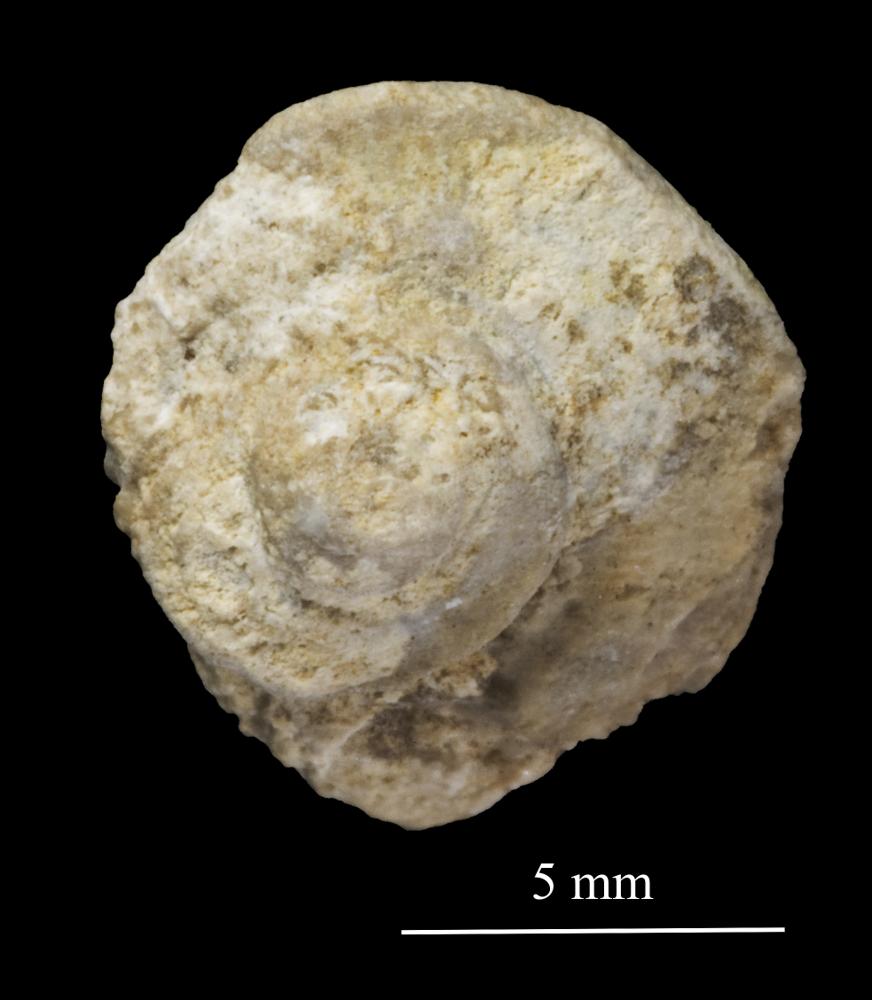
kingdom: Animalia
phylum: Mollusca
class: Gastropoda
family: Trochonematidae
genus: Trochonema
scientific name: Trochonema panderi
